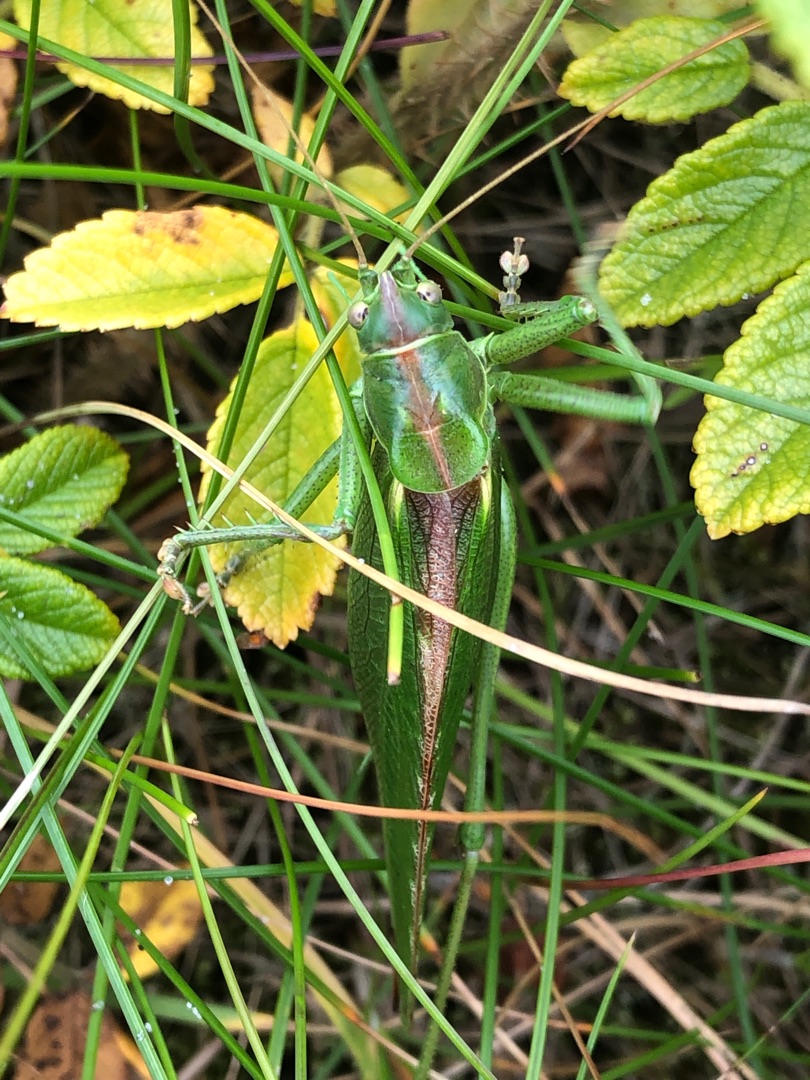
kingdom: Animalia
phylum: Arthropoda
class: Insecta
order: Orthoptera
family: Tettigoniidae
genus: Tettigonia
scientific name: Tettigonia viridissima
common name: Stor grøn løvgræshoppe
